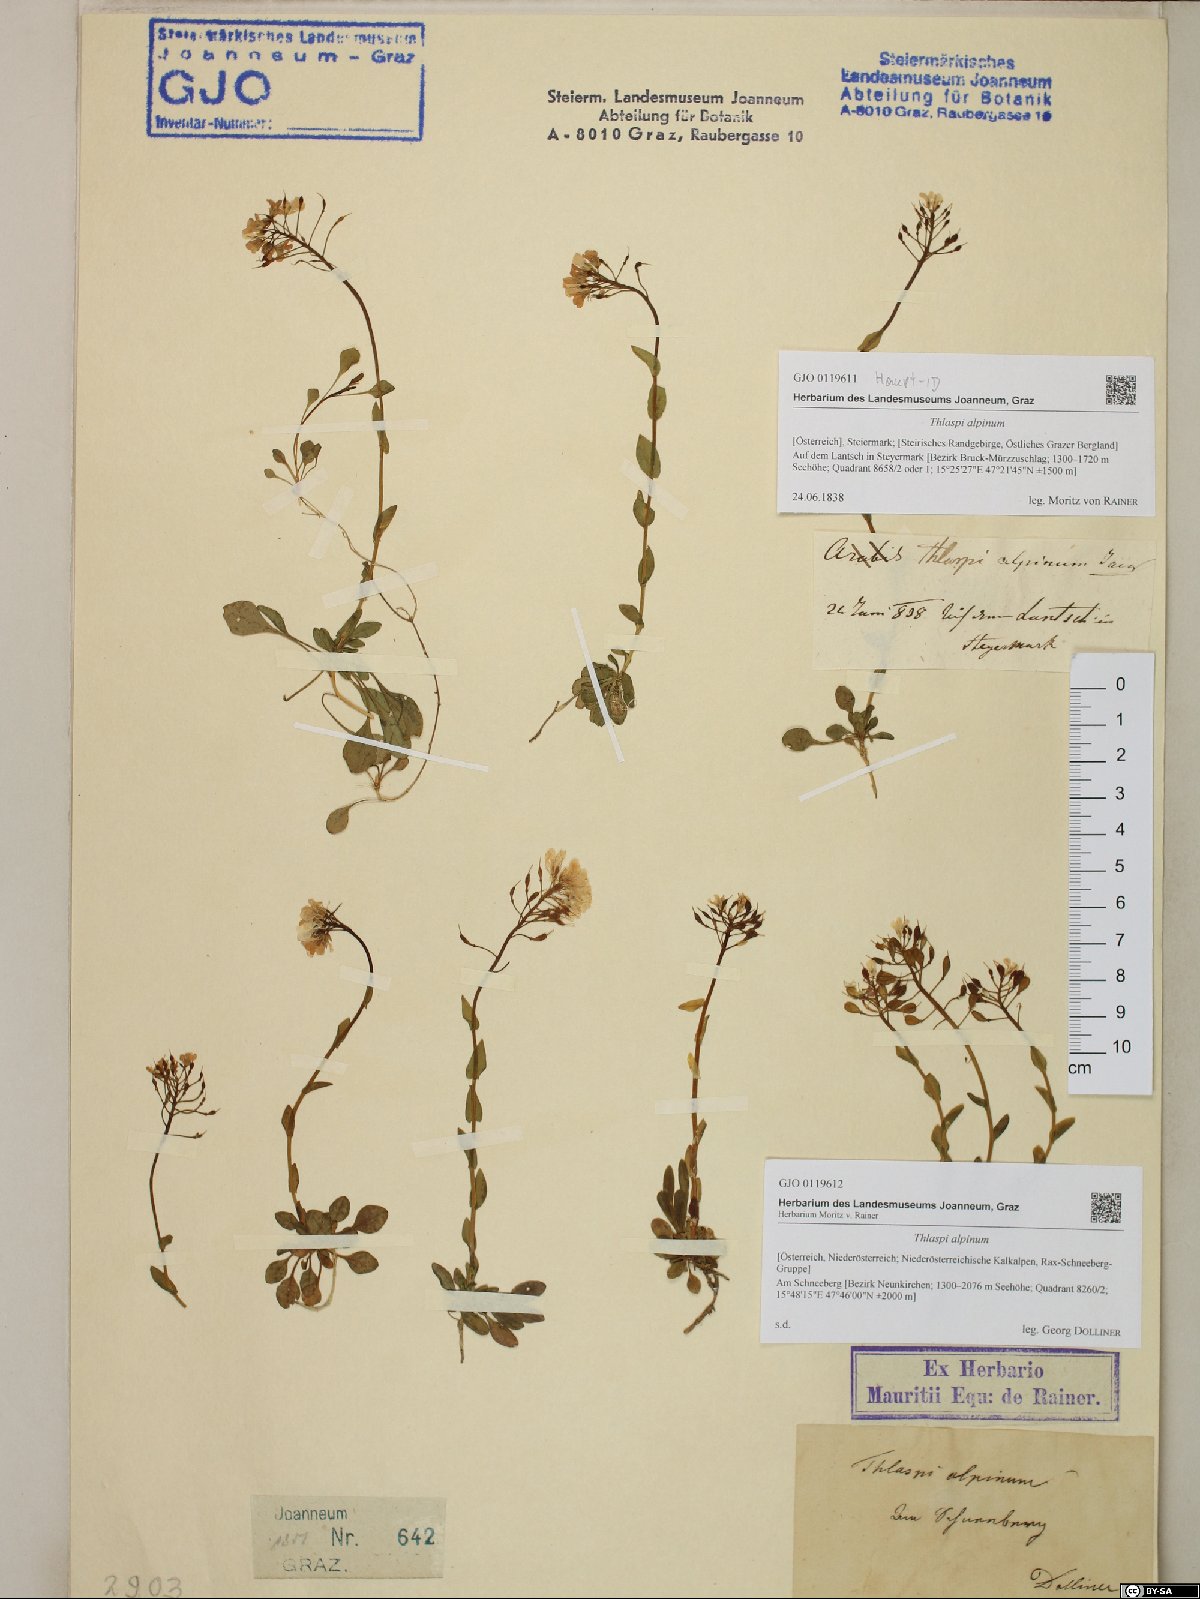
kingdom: Plantae
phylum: Tracheophyta
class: Magnoliopsida
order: Brassicales
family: Brassicaceae
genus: Noccaea
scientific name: Noccaea alpestris
